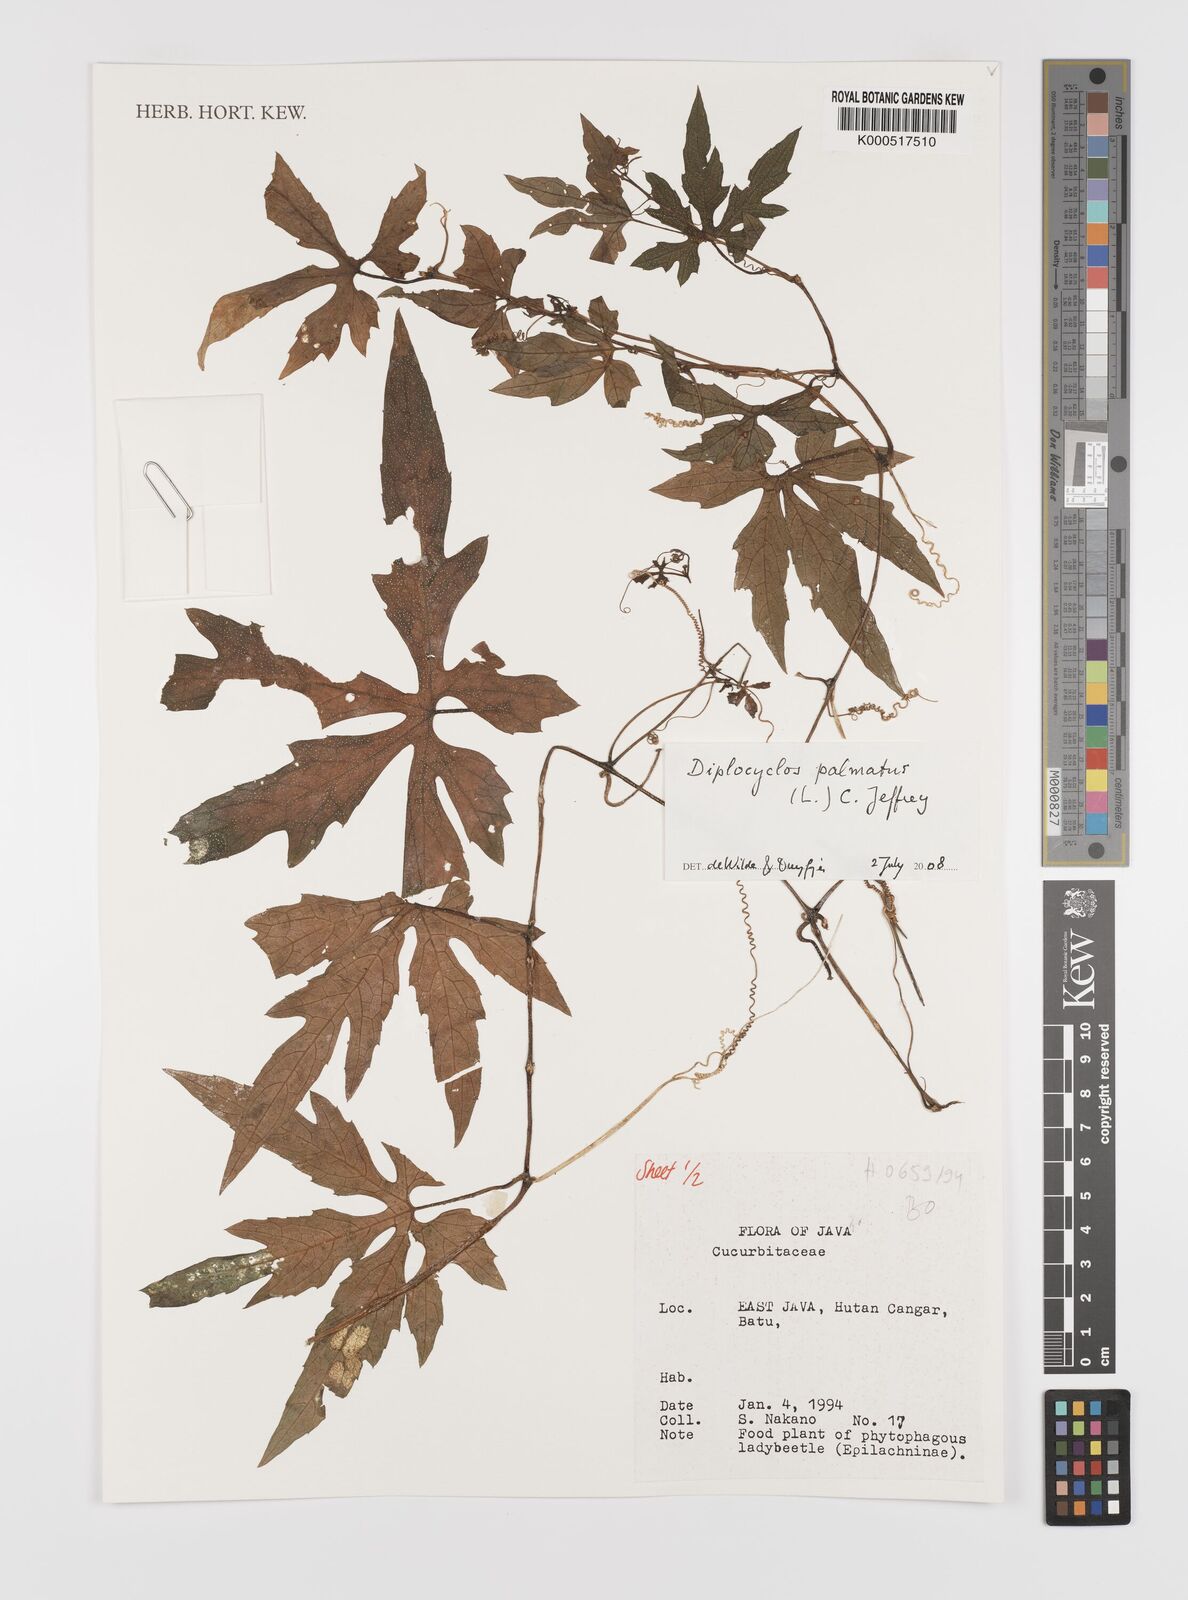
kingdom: Plantae
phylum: Tracheophyta
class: Magnoliopsida
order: Cucurbitales
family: Cucurbitaceae
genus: Diplocyclos
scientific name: Diplocyclos palmatus
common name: Striped-cucumber
